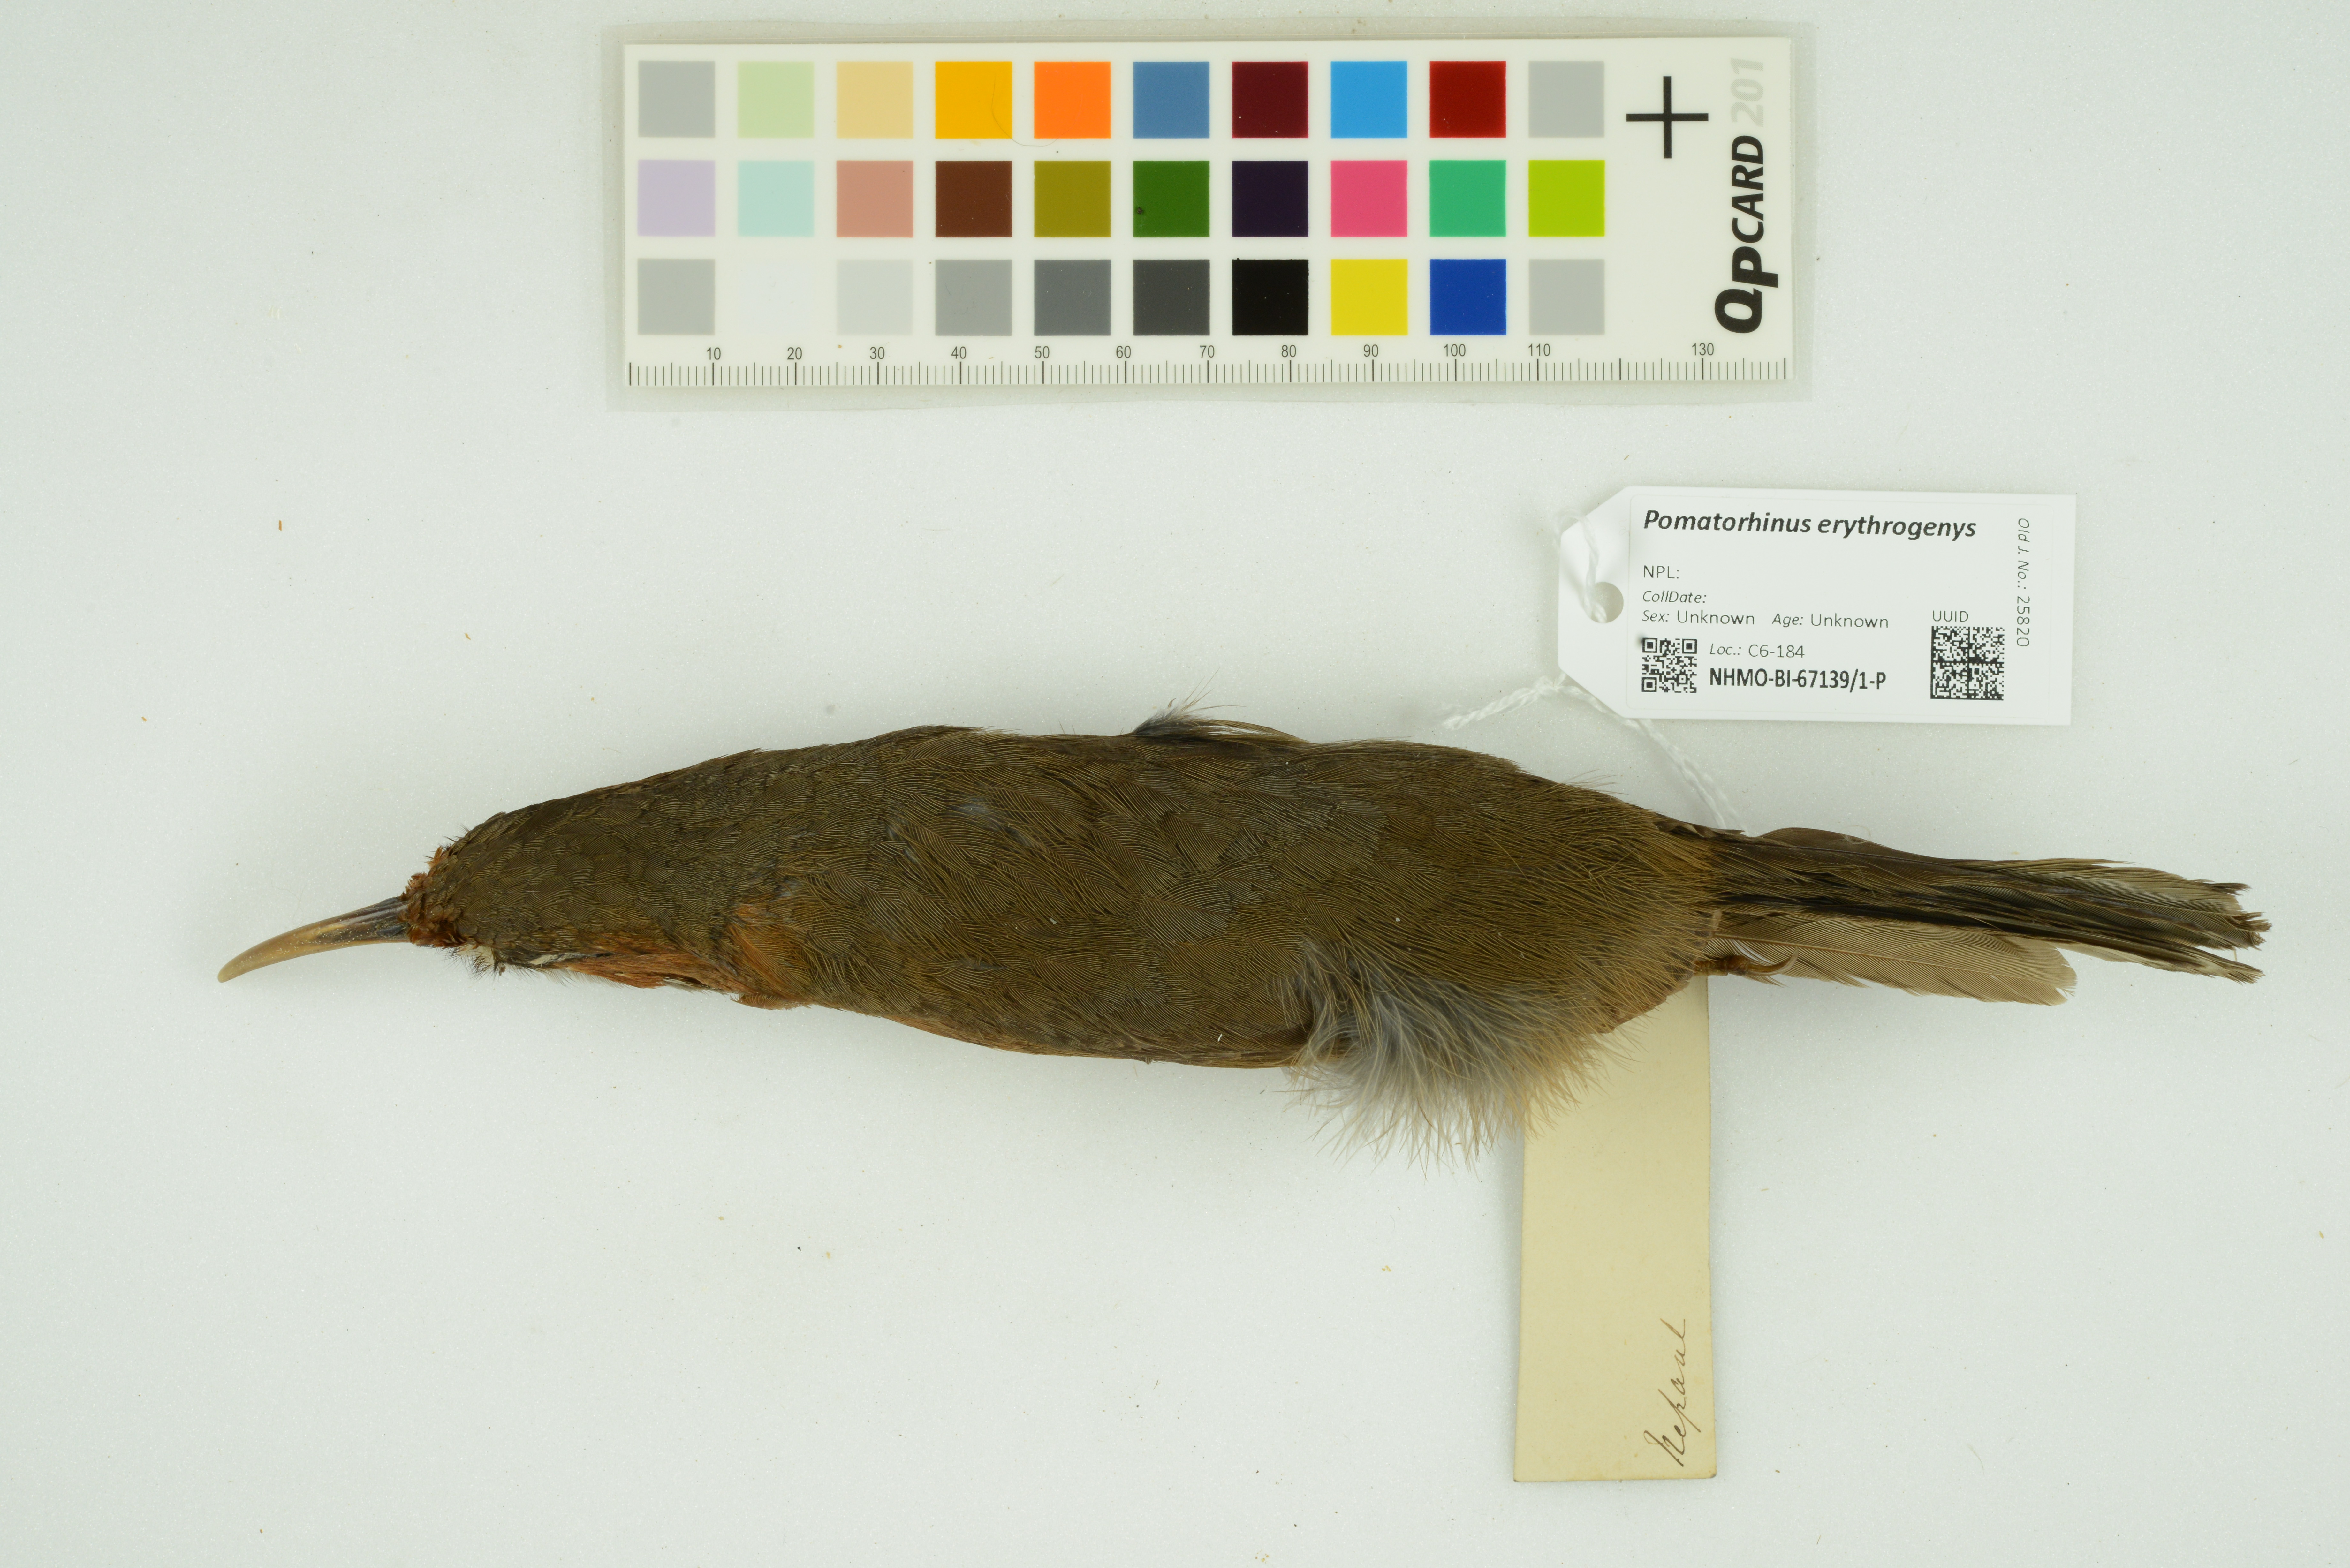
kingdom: Animalia
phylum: Chordata
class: Aves
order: Passeriformes
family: Timaliidae
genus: Pomatorhinus
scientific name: Pomatorhinus erythrogenys
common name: Rusty-cheeked scimitar babbler
